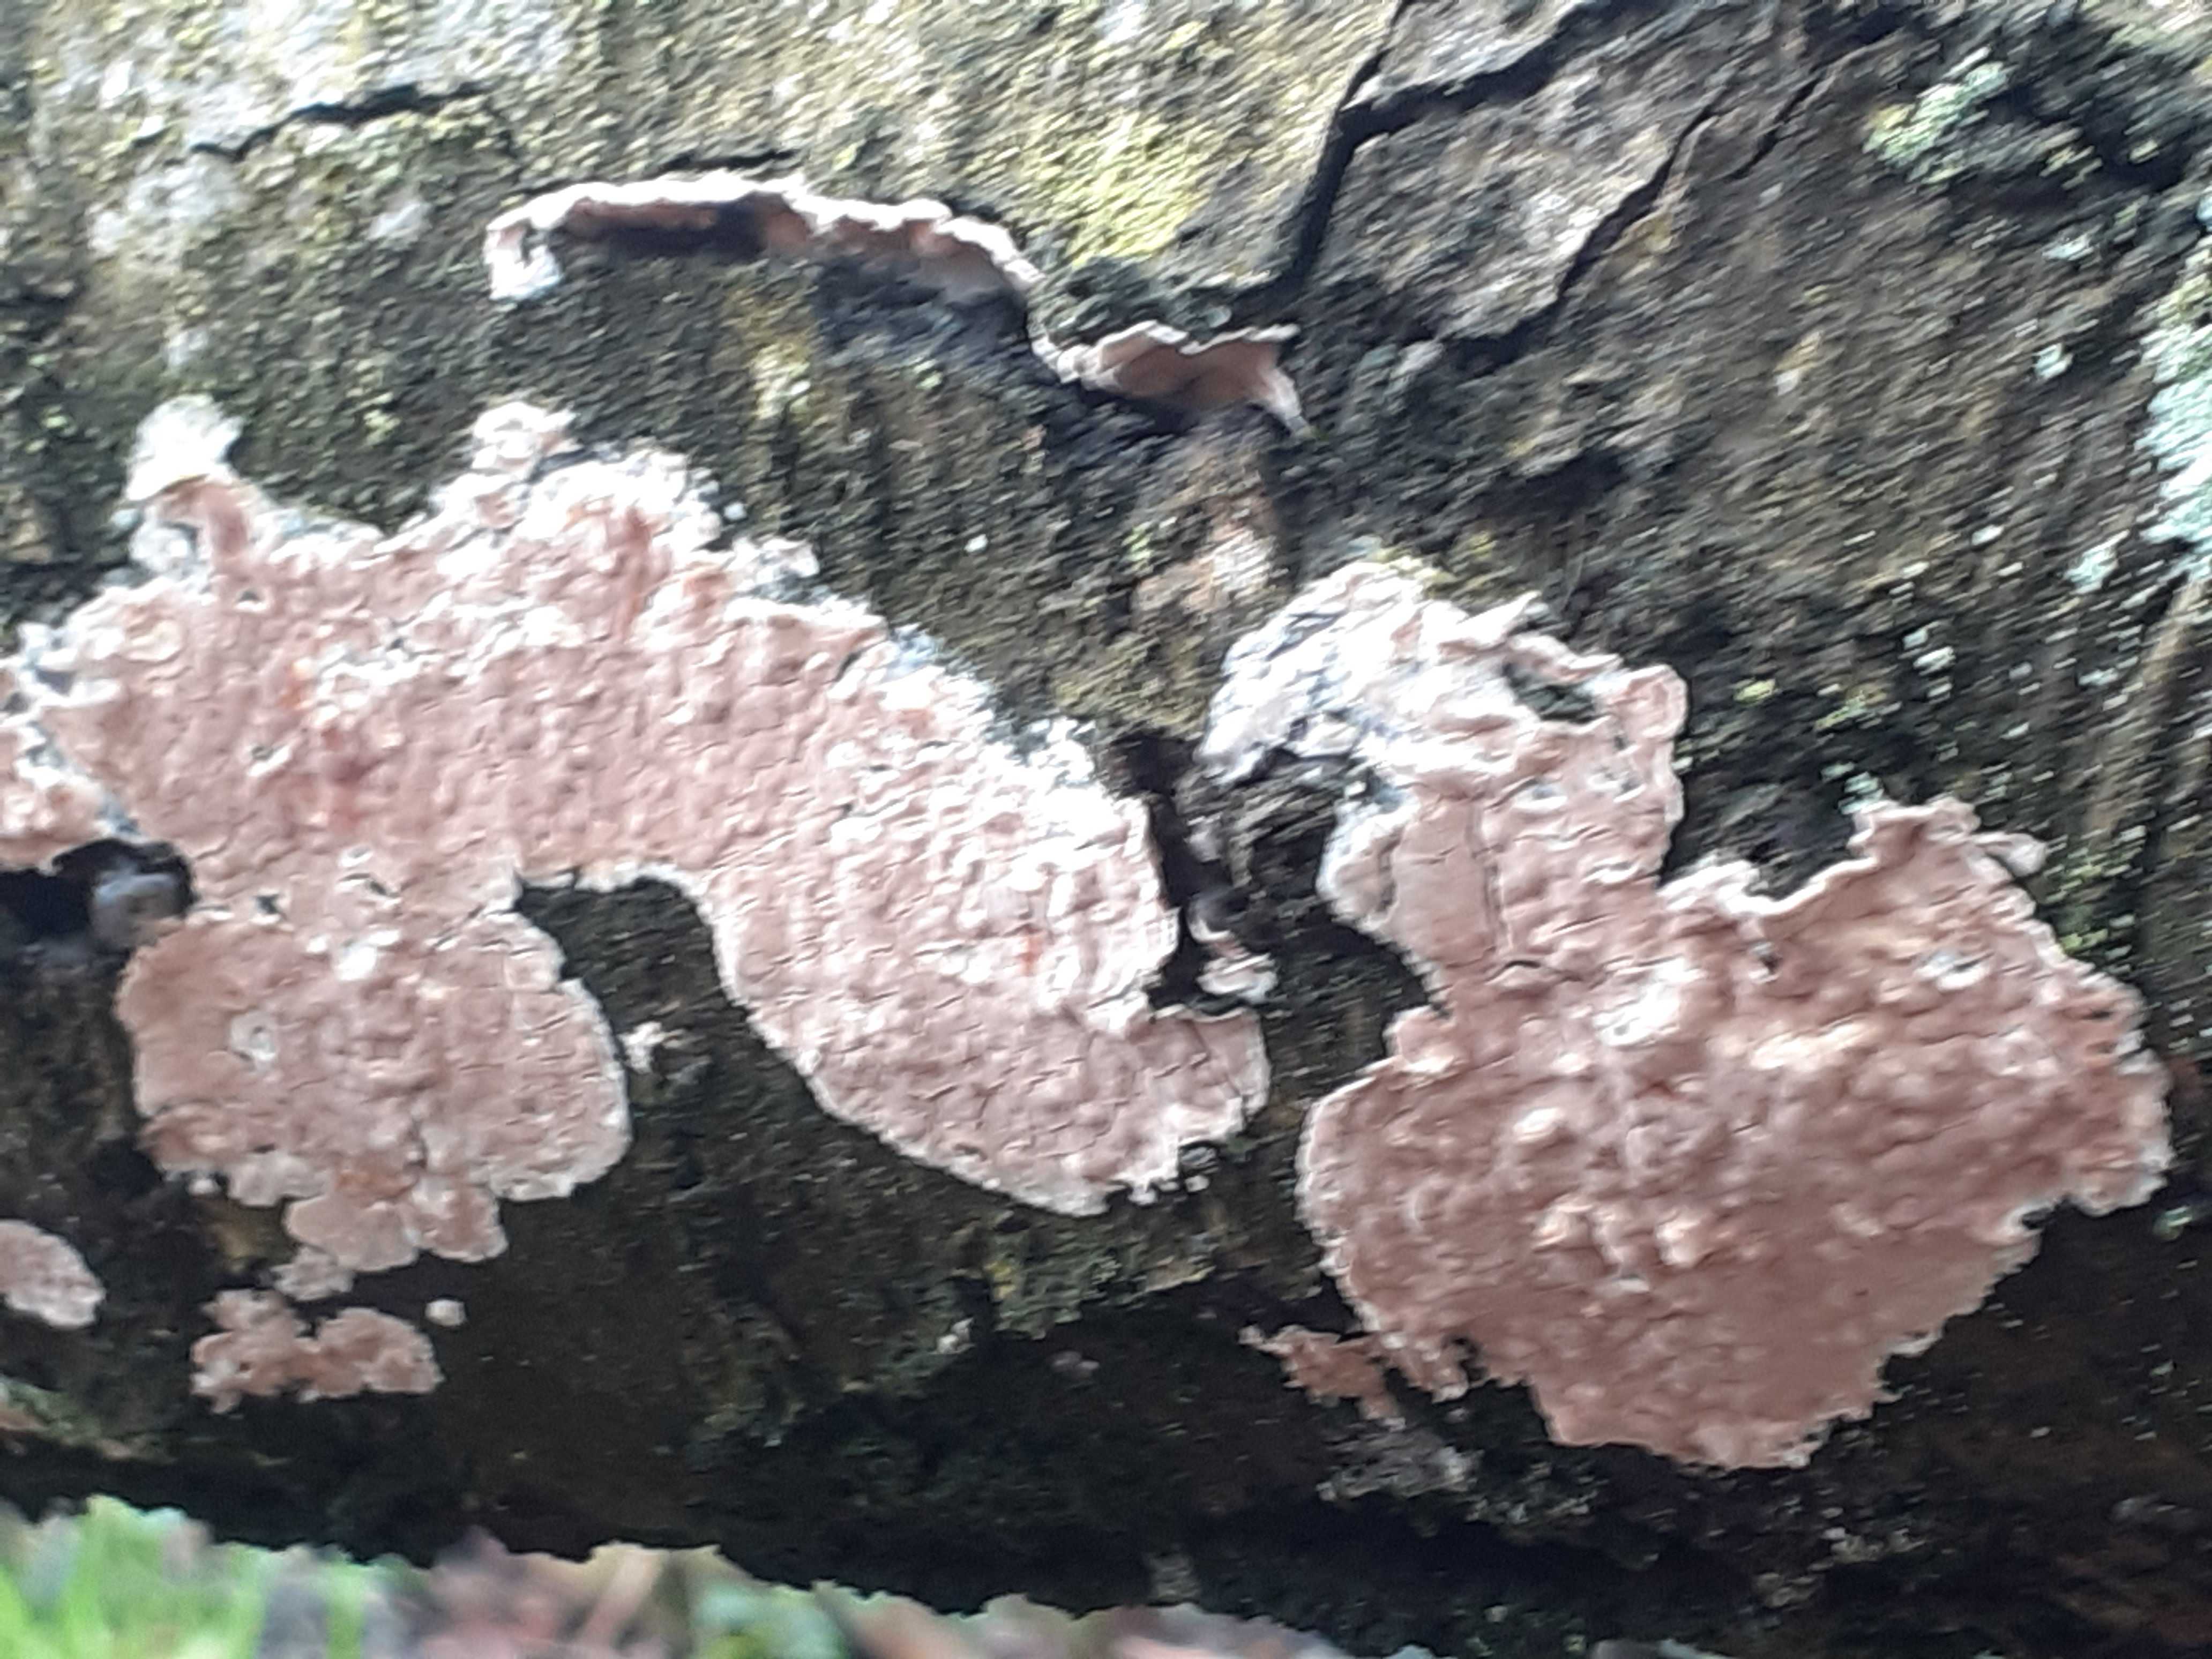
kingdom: Fungi
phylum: Basidiomycota
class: Agaricomycetes
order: Agaricales
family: Physalacriaceae
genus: Cylindrobasidium
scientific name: Cylindrobasidium evolvens
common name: sprækkehinde
